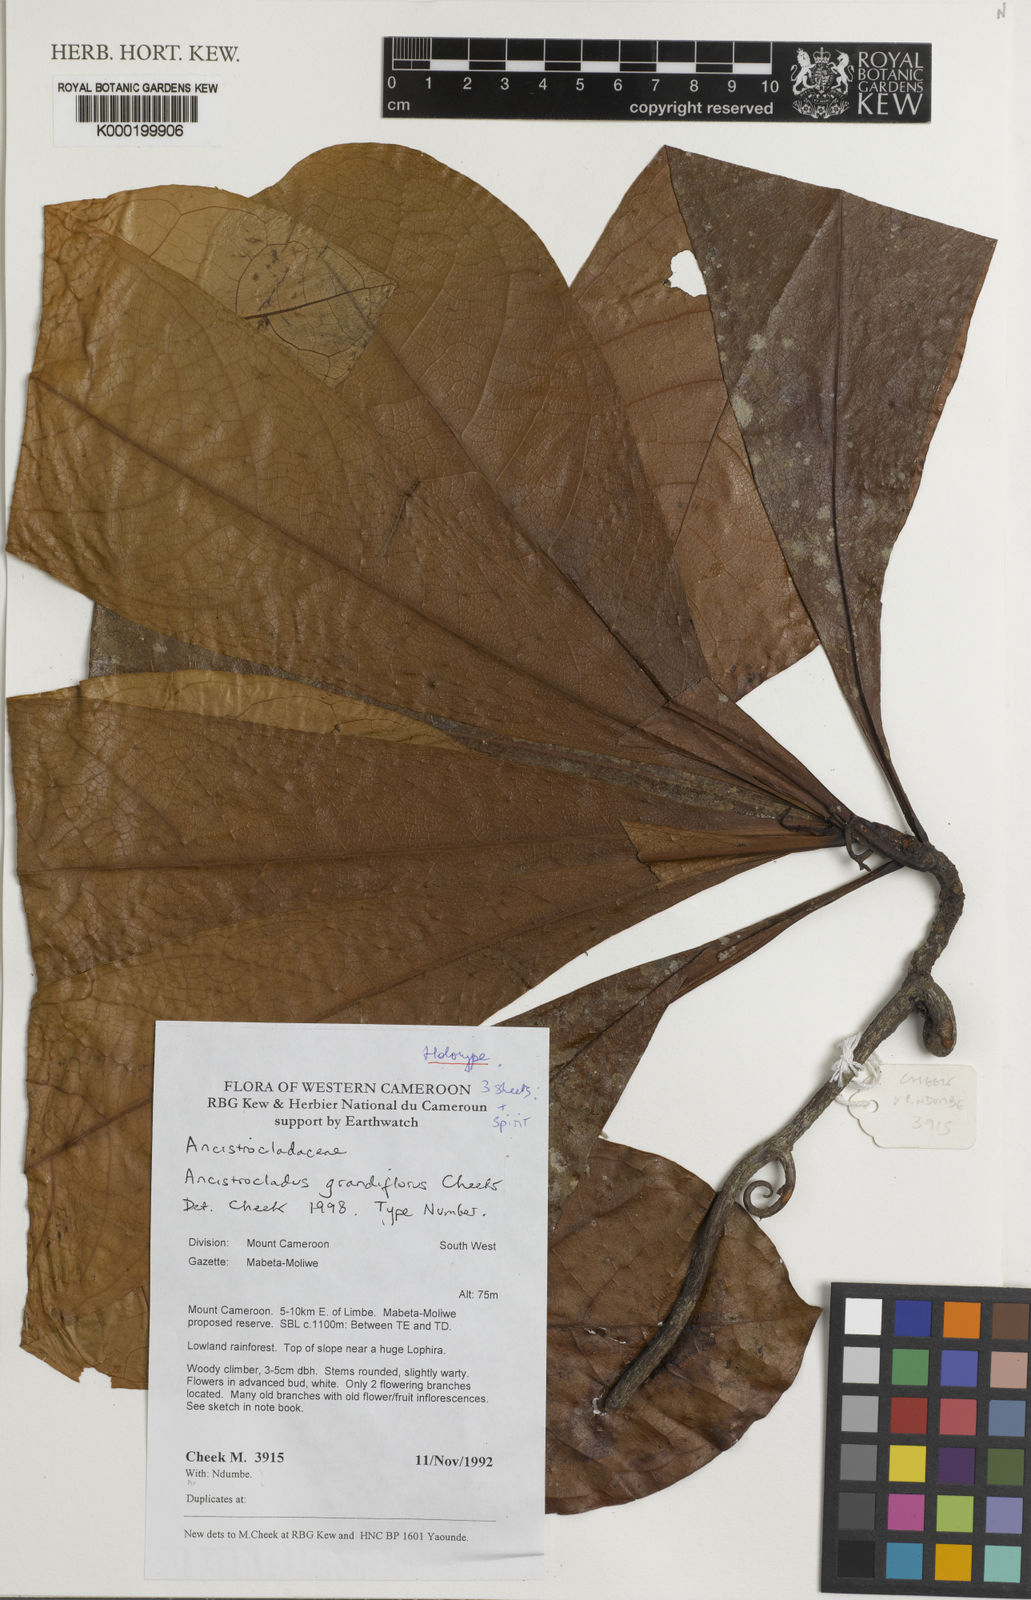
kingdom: Plantae
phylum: Tracheophyta
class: Magnoliopsida
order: Caryophyllales
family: Ancistrocladaceae
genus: Ancistrocladus
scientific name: Ancistrocladus grandiflorus
